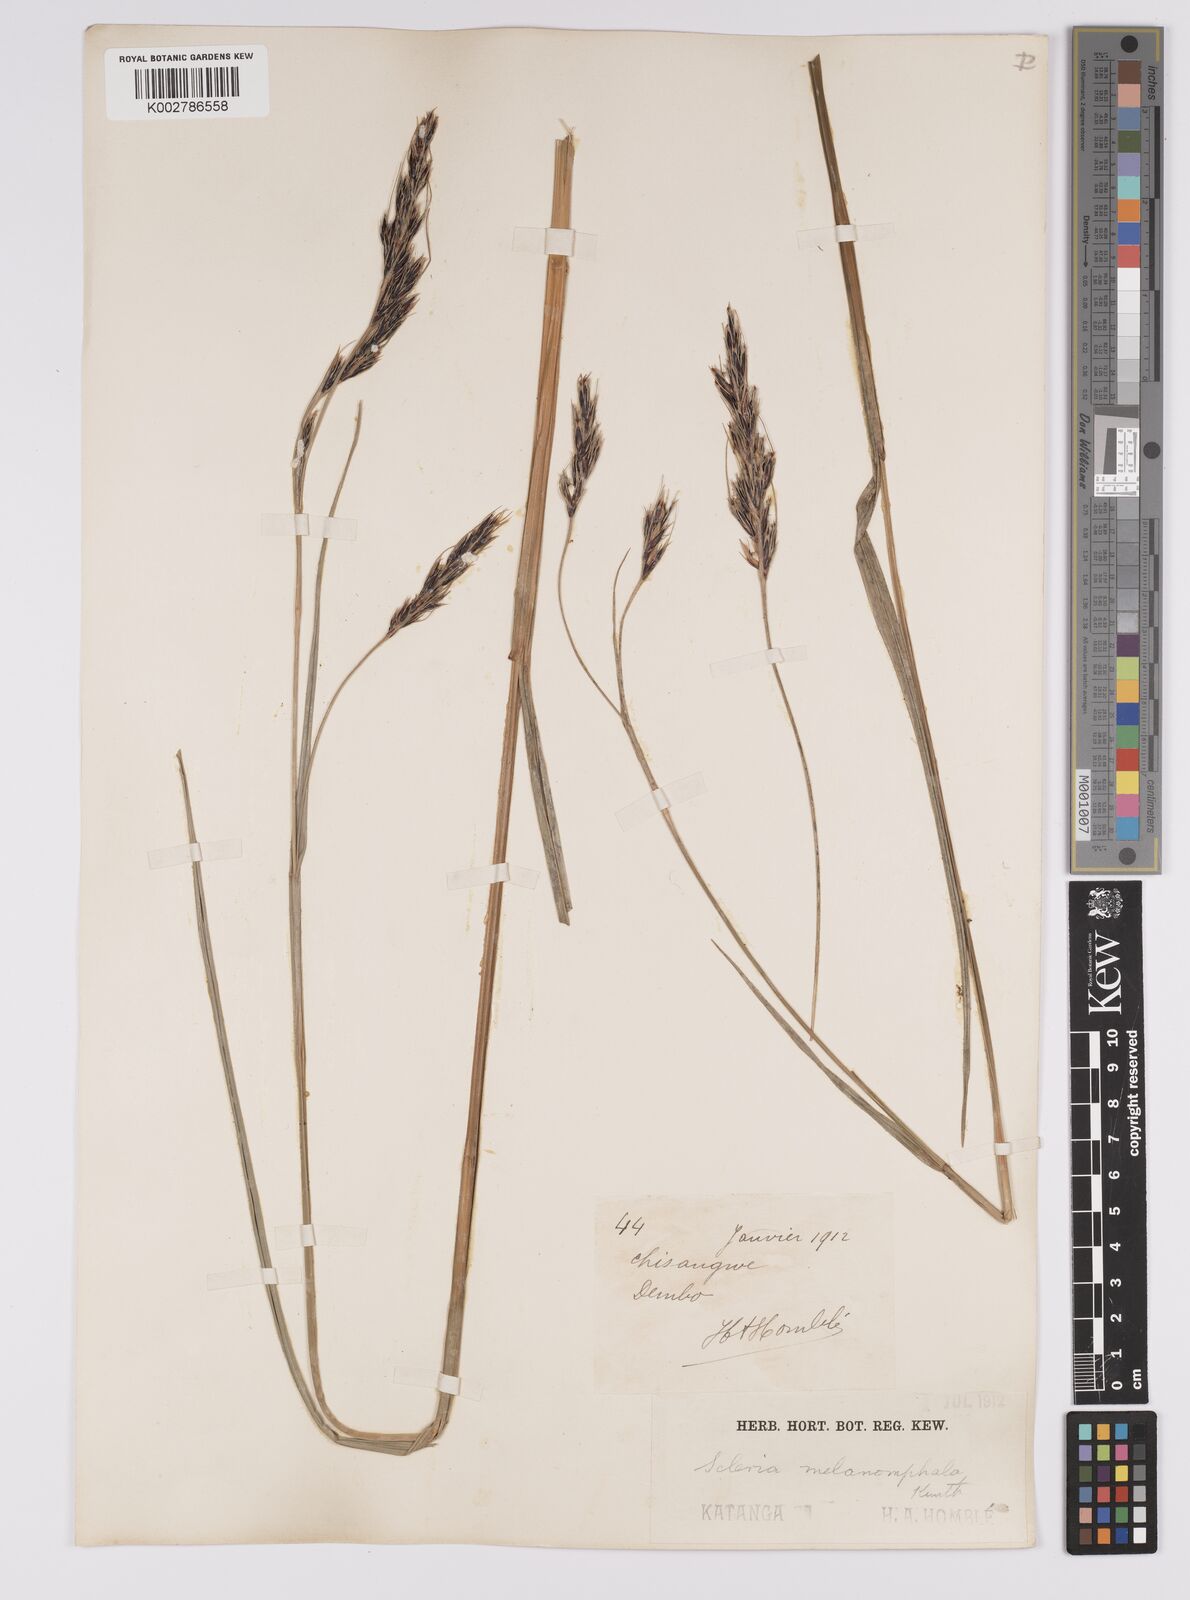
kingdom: Plantae
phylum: Tracheophyta
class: Liliopsida
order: Poales
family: Cyperaceae
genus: Scleria
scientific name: Scleria melanomphala
